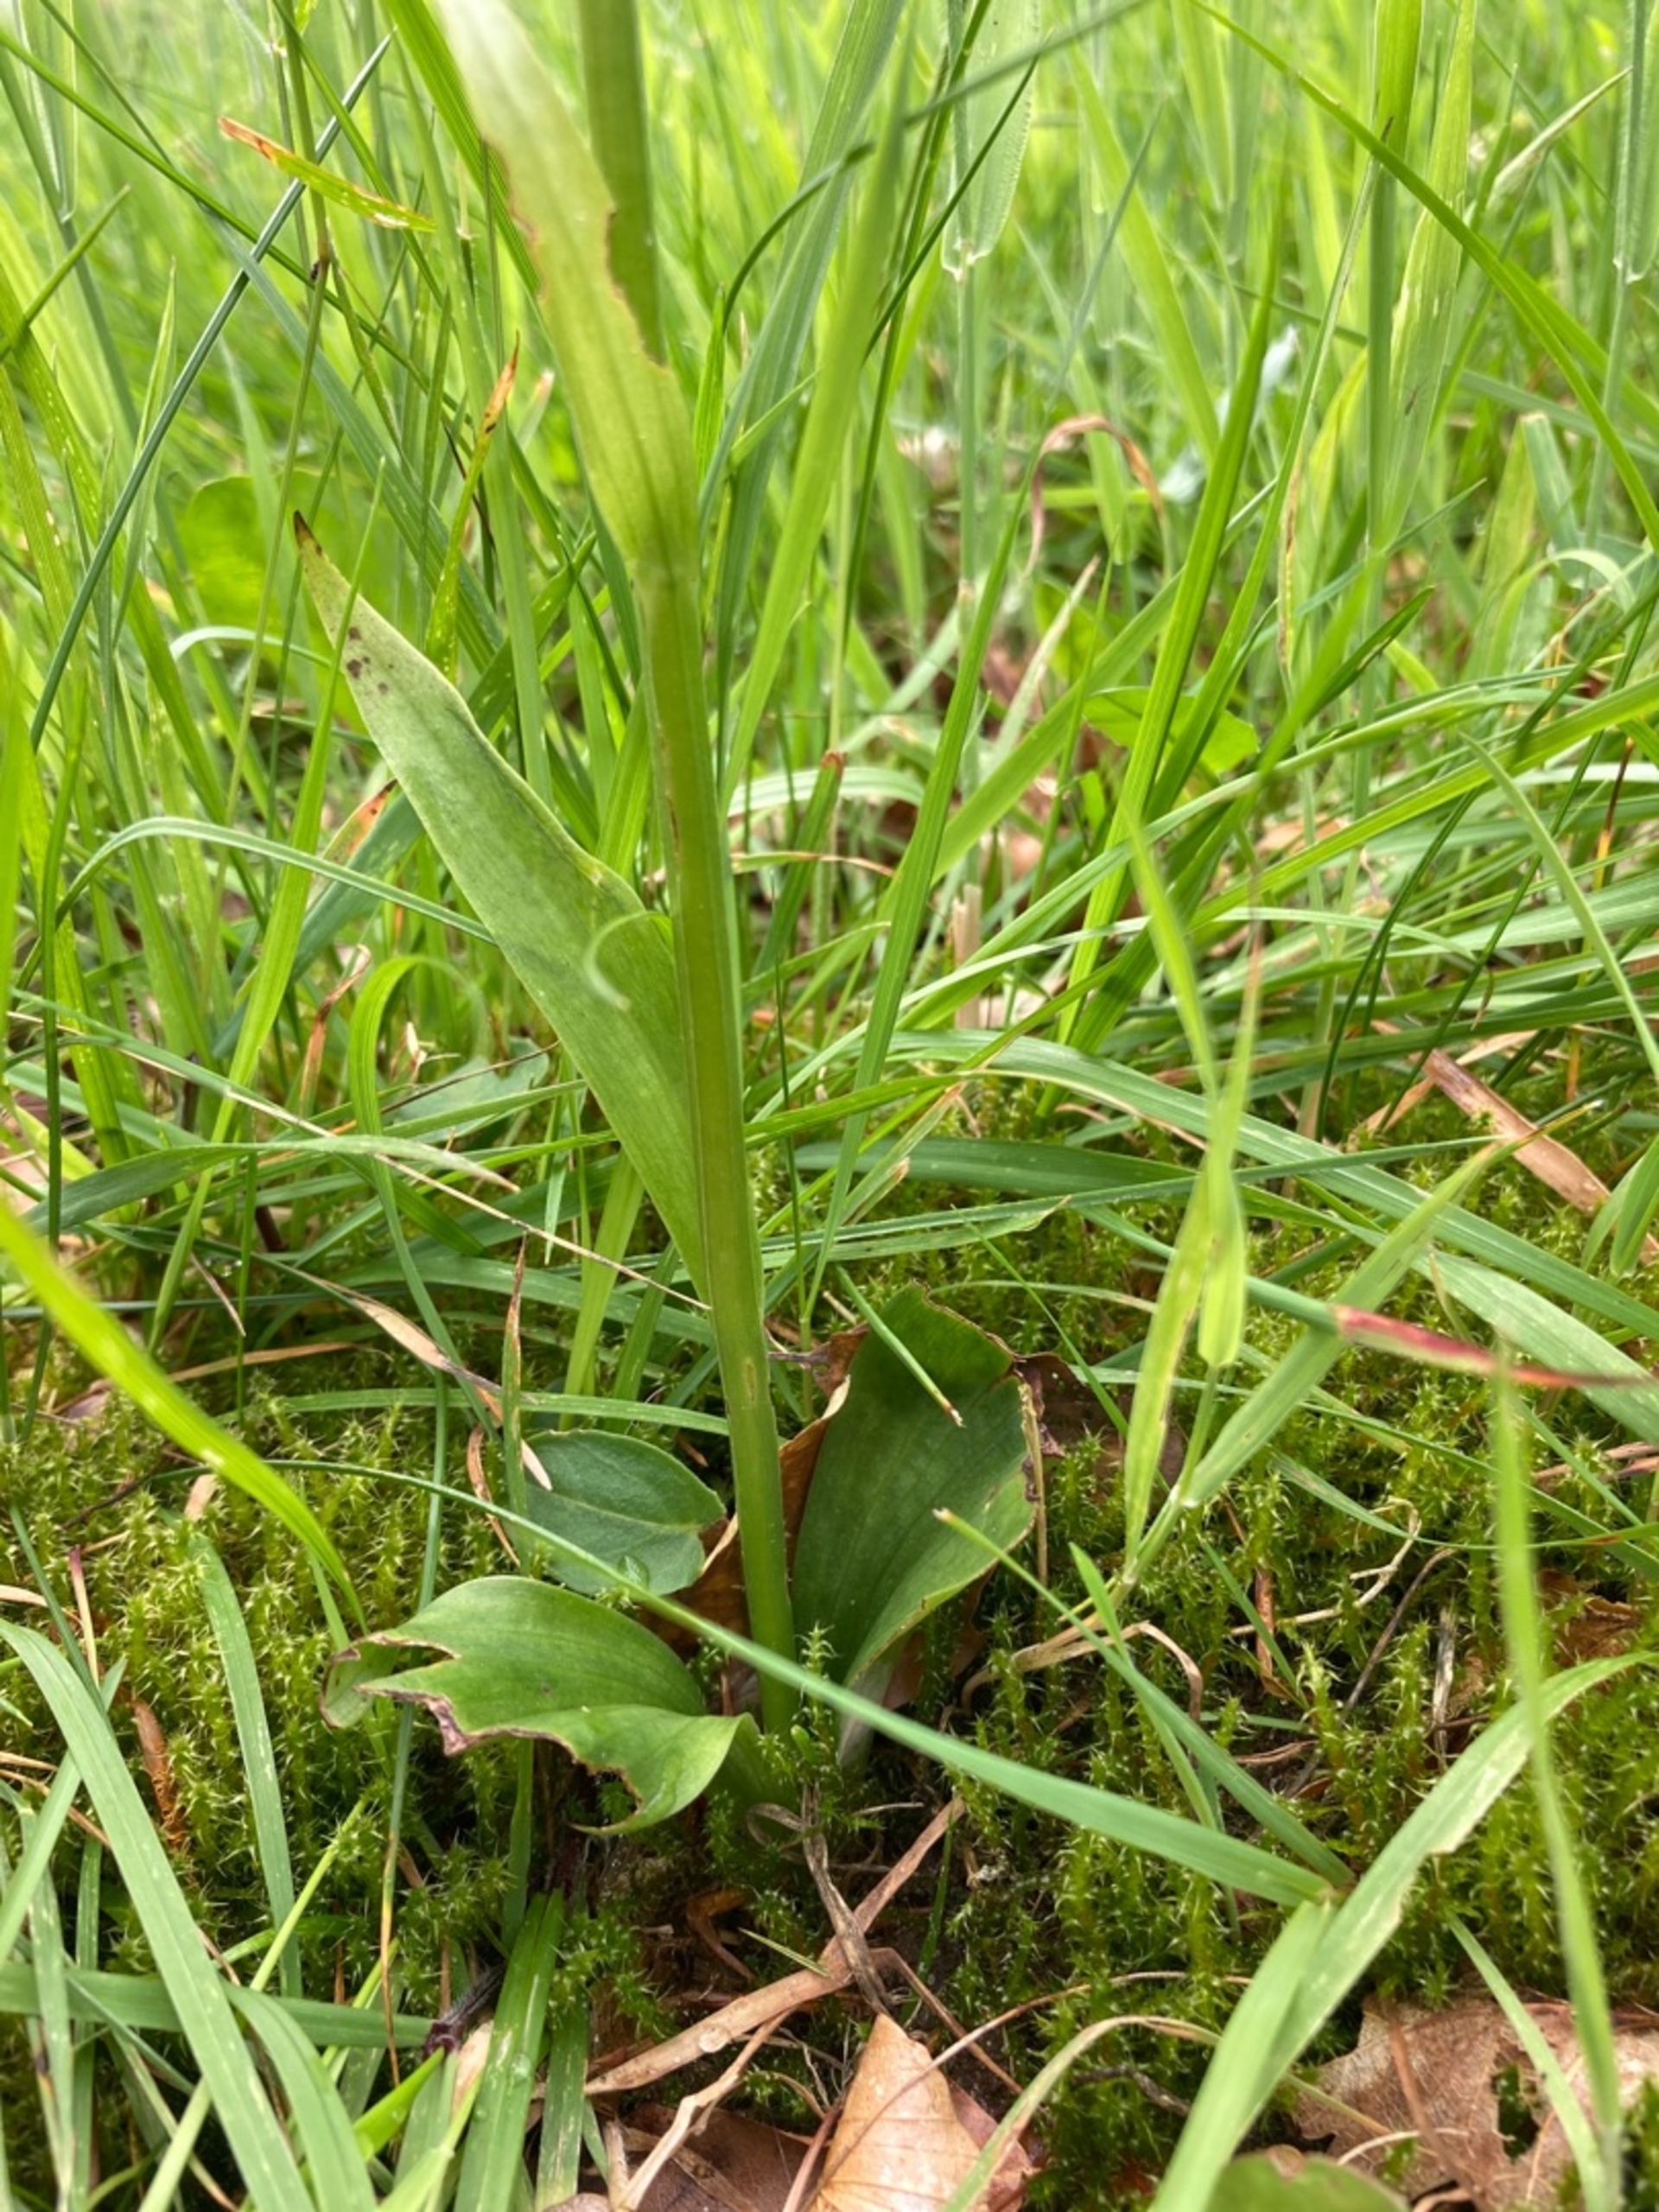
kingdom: Plantae
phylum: Tracheophyta
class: Liliopsida
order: Asparagales
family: Orchidaceae
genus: Platanthera
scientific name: Platanthera chlorantha
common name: Skov-gøgelilje
